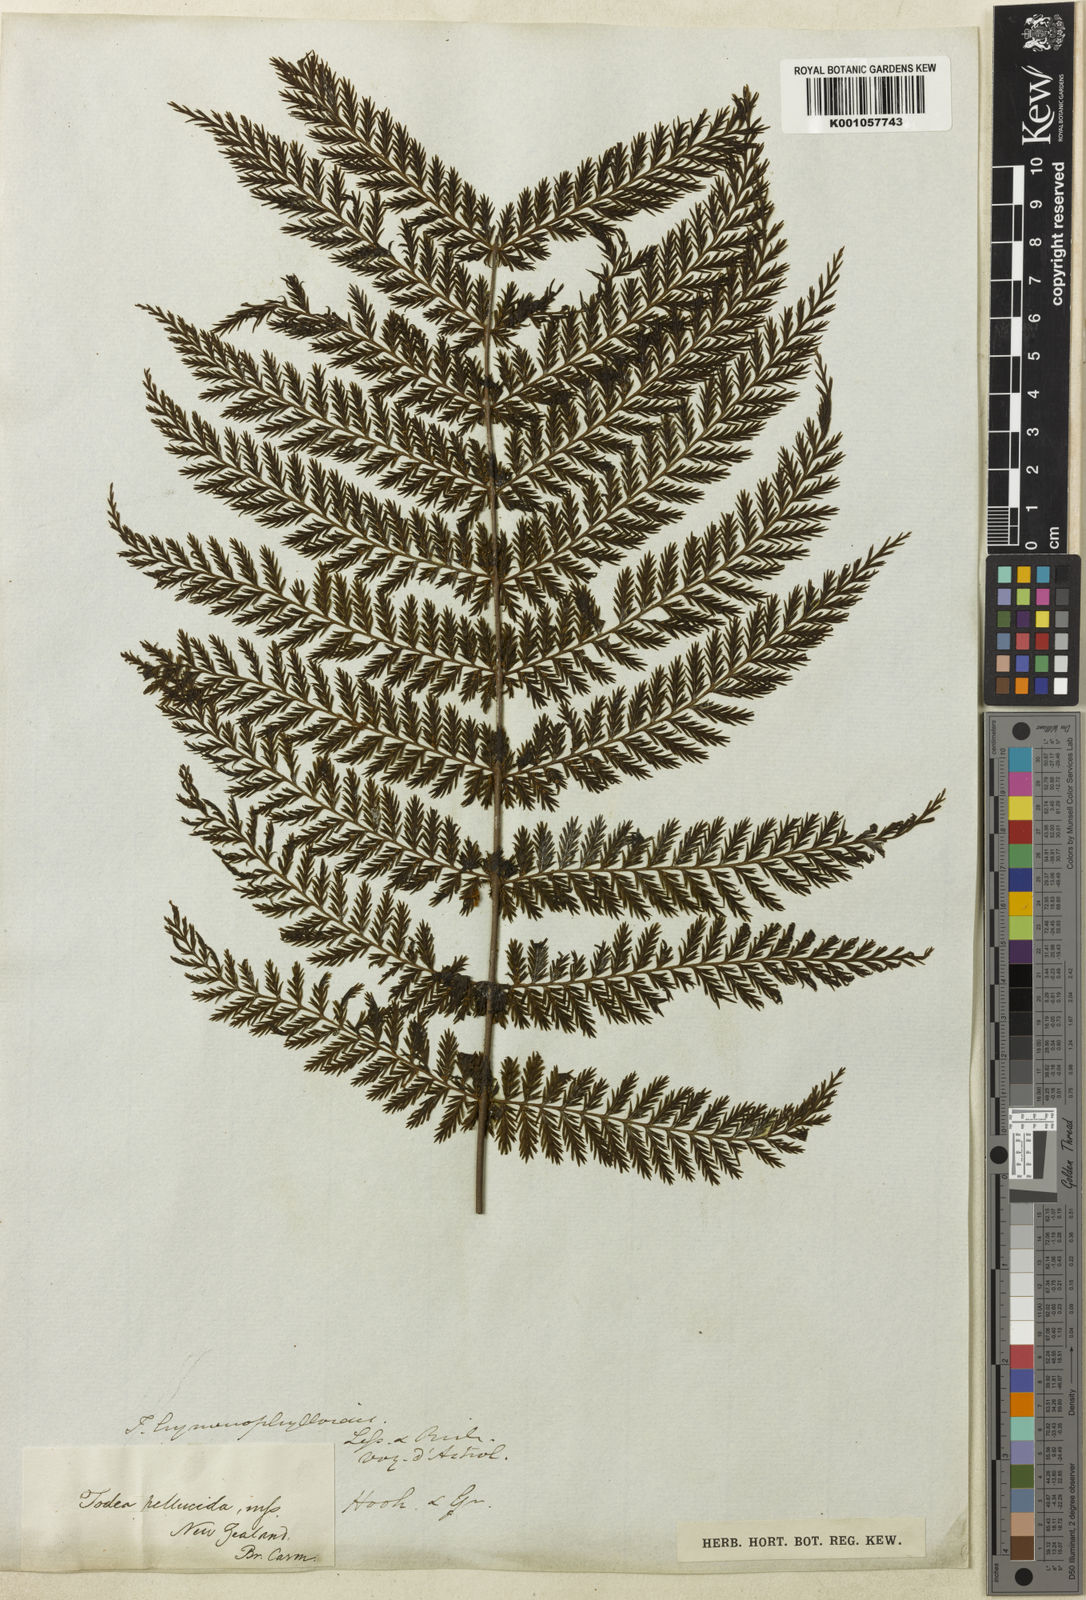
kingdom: Plantae
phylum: Tracheophyta
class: Polypodiopsida
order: Osmundales
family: Osmundaceae
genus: Leptopteris
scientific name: Leptopteris hymenophylloides
